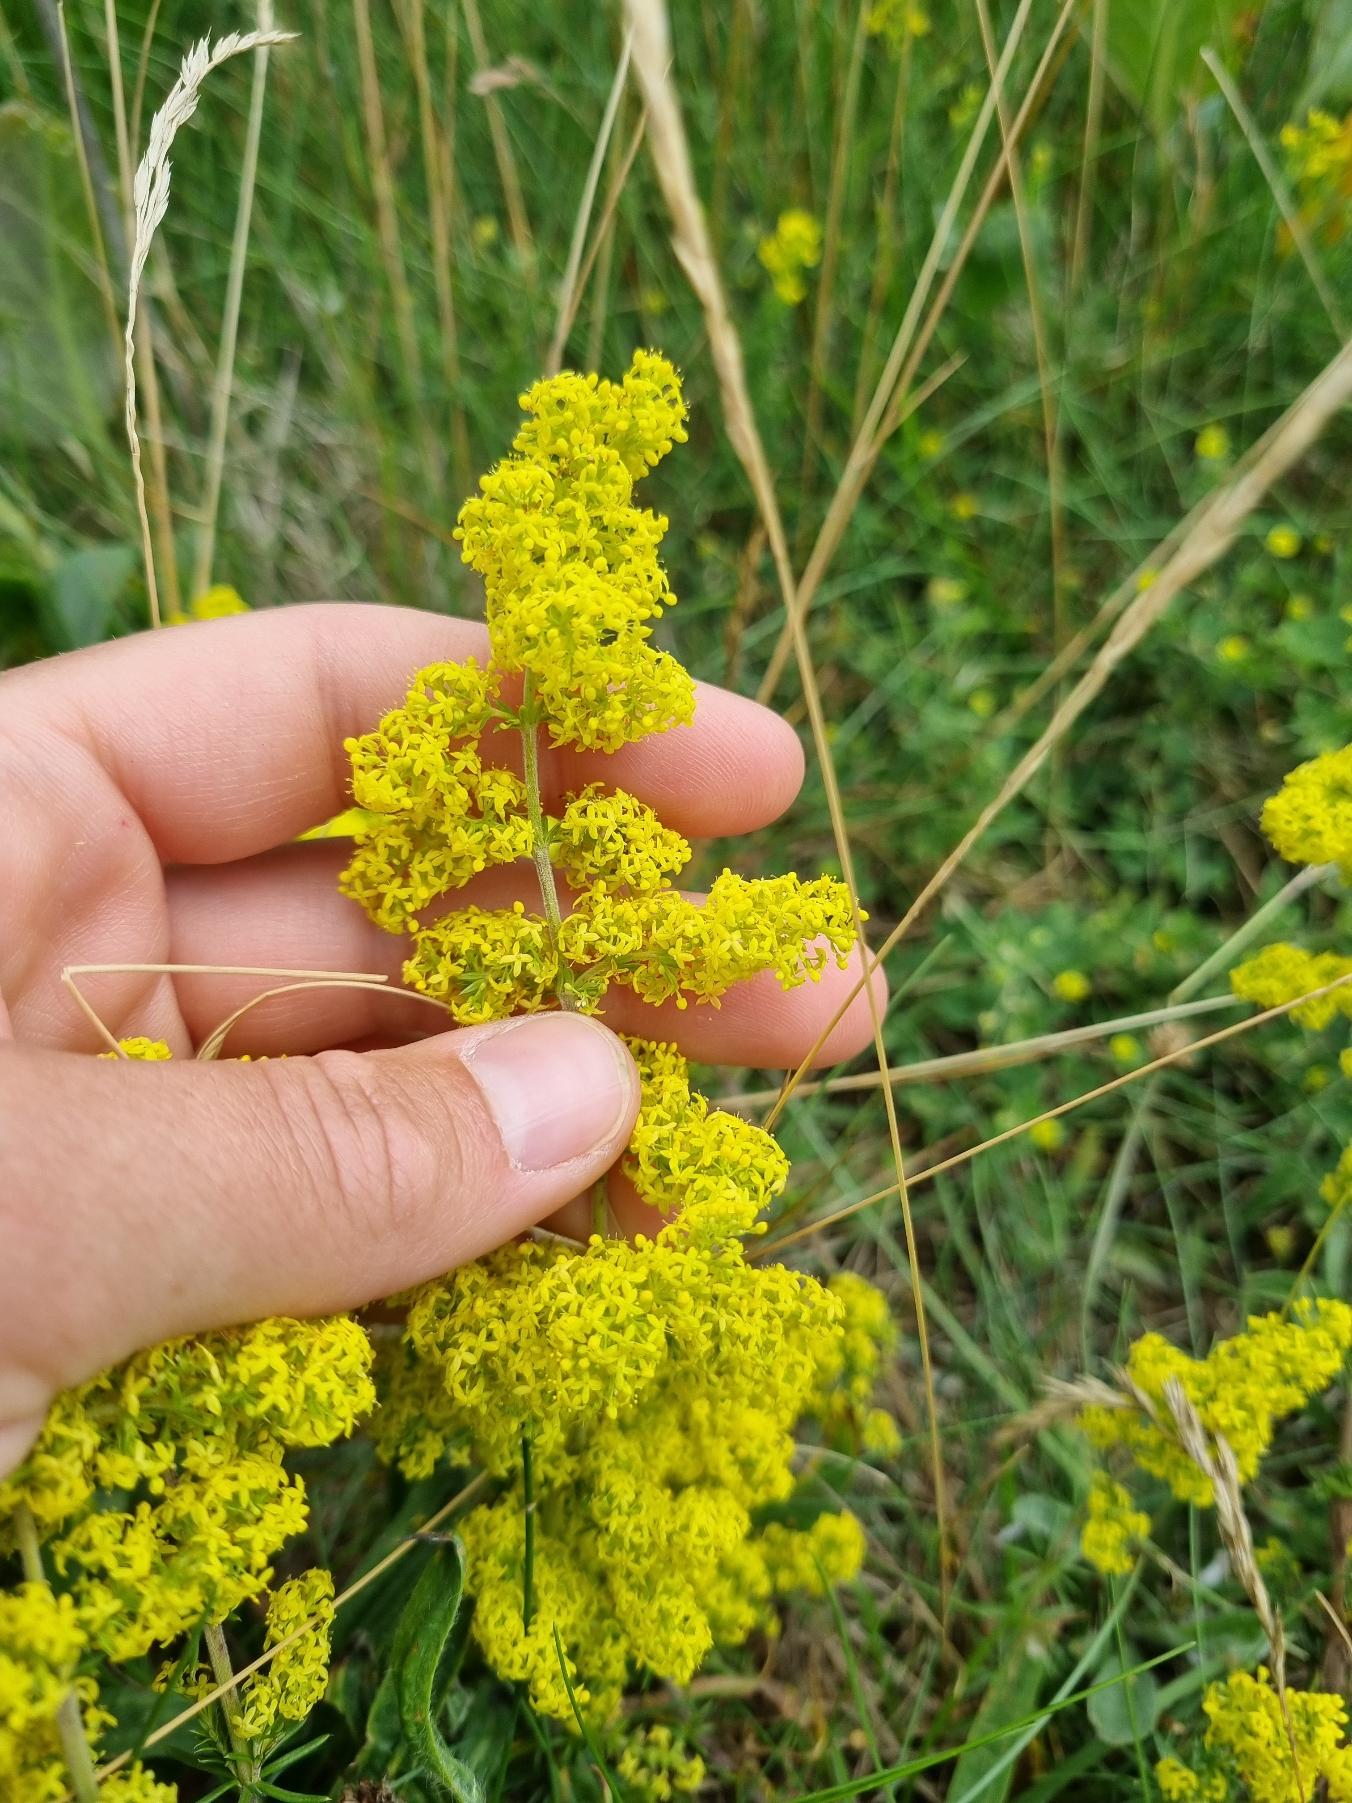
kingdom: Plantae
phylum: Tracheophyta
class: Magnoliopsida
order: Gentianales
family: Rubiaceae
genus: Galium
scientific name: Galium verum
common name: Gul snerre
